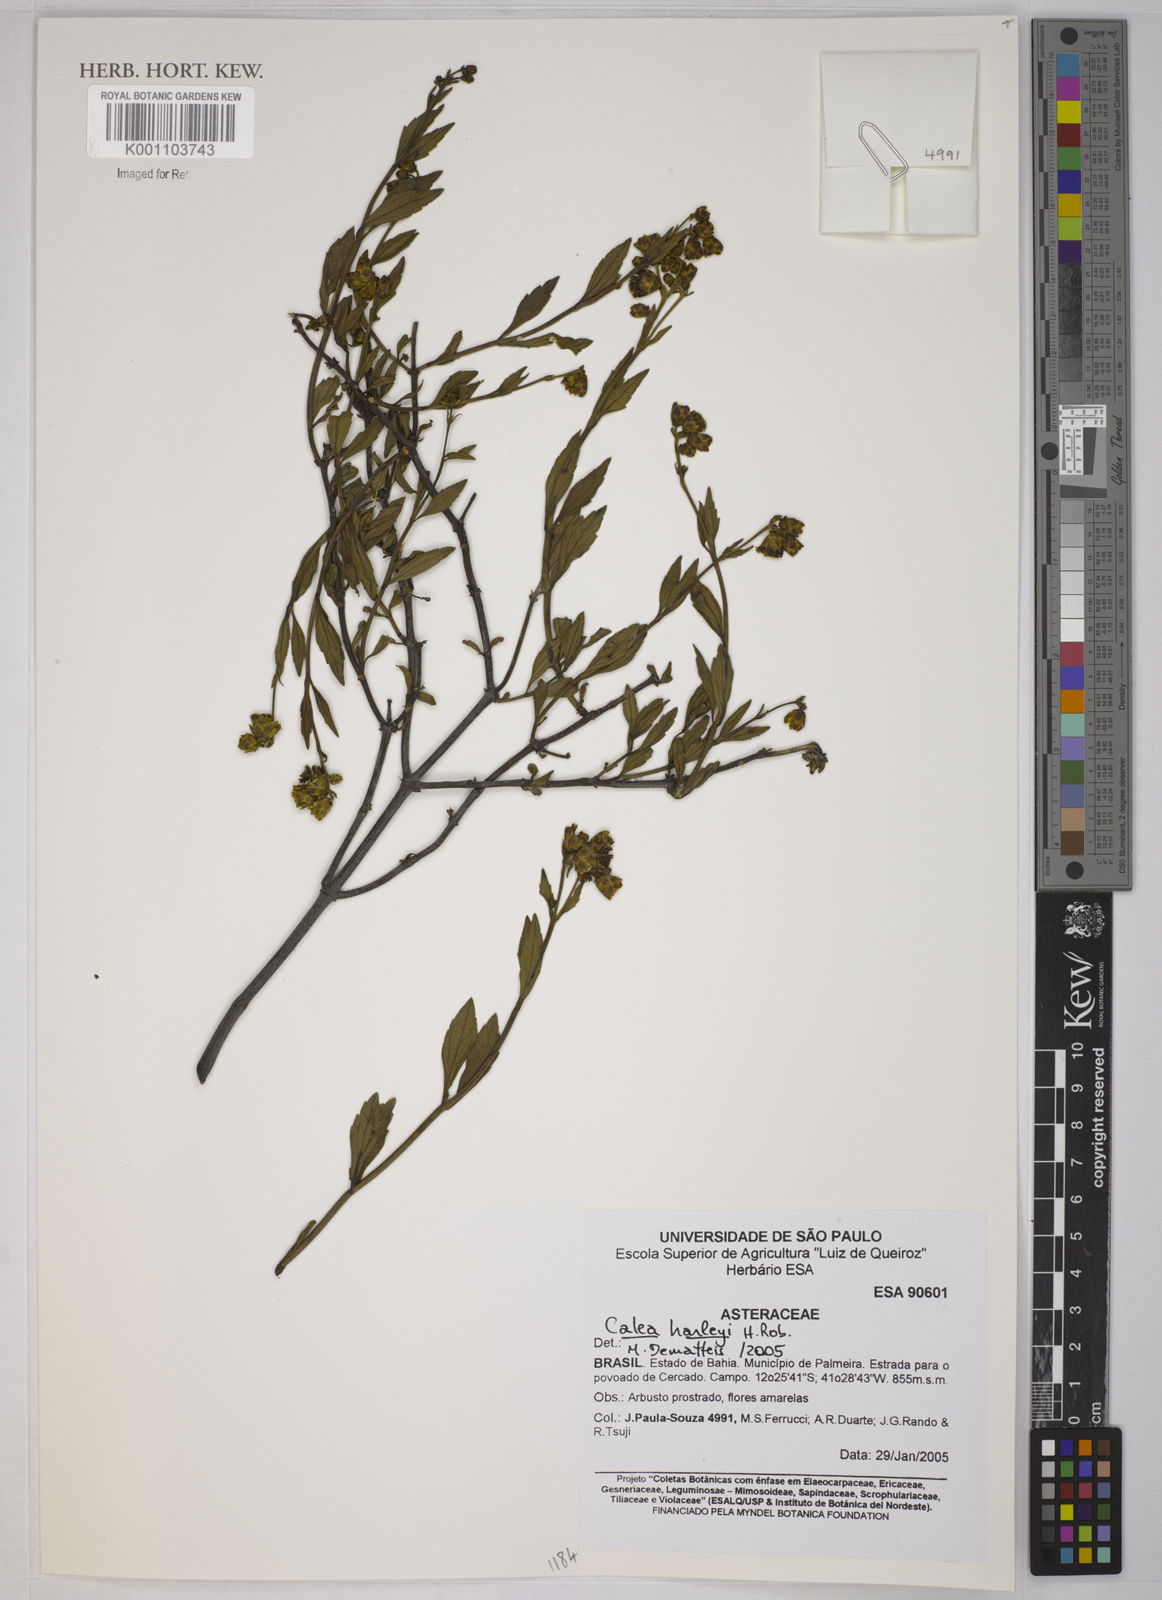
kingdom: Plantae
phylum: Tracheophyta
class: Magnoliopsida
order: Asterales
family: Asteraceae
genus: Calea
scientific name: Calea harleyi
